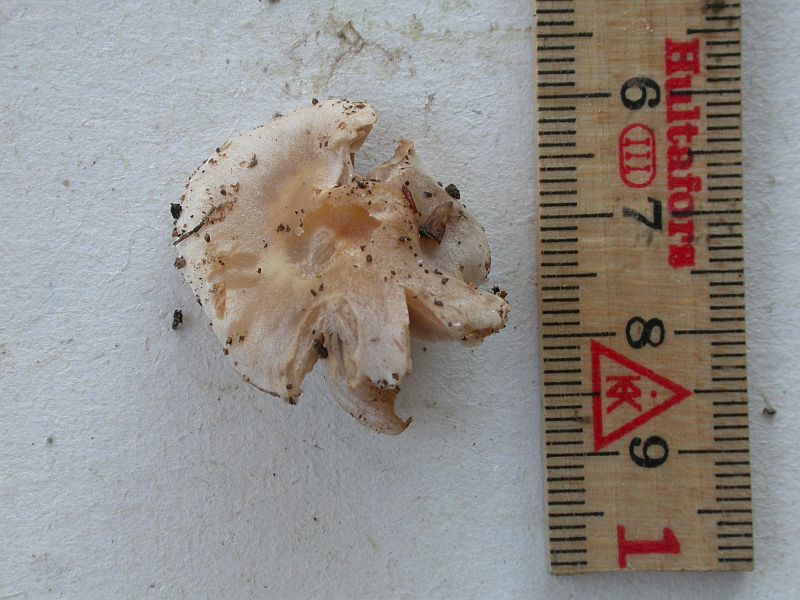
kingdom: Fungi
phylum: Basidiomycota
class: Agaricomycetes
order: Agaricales
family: Hymenogastraceae
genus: Hebeloma
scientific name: Hebeloma sacchariolens
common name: sødtduftende tåreblad
